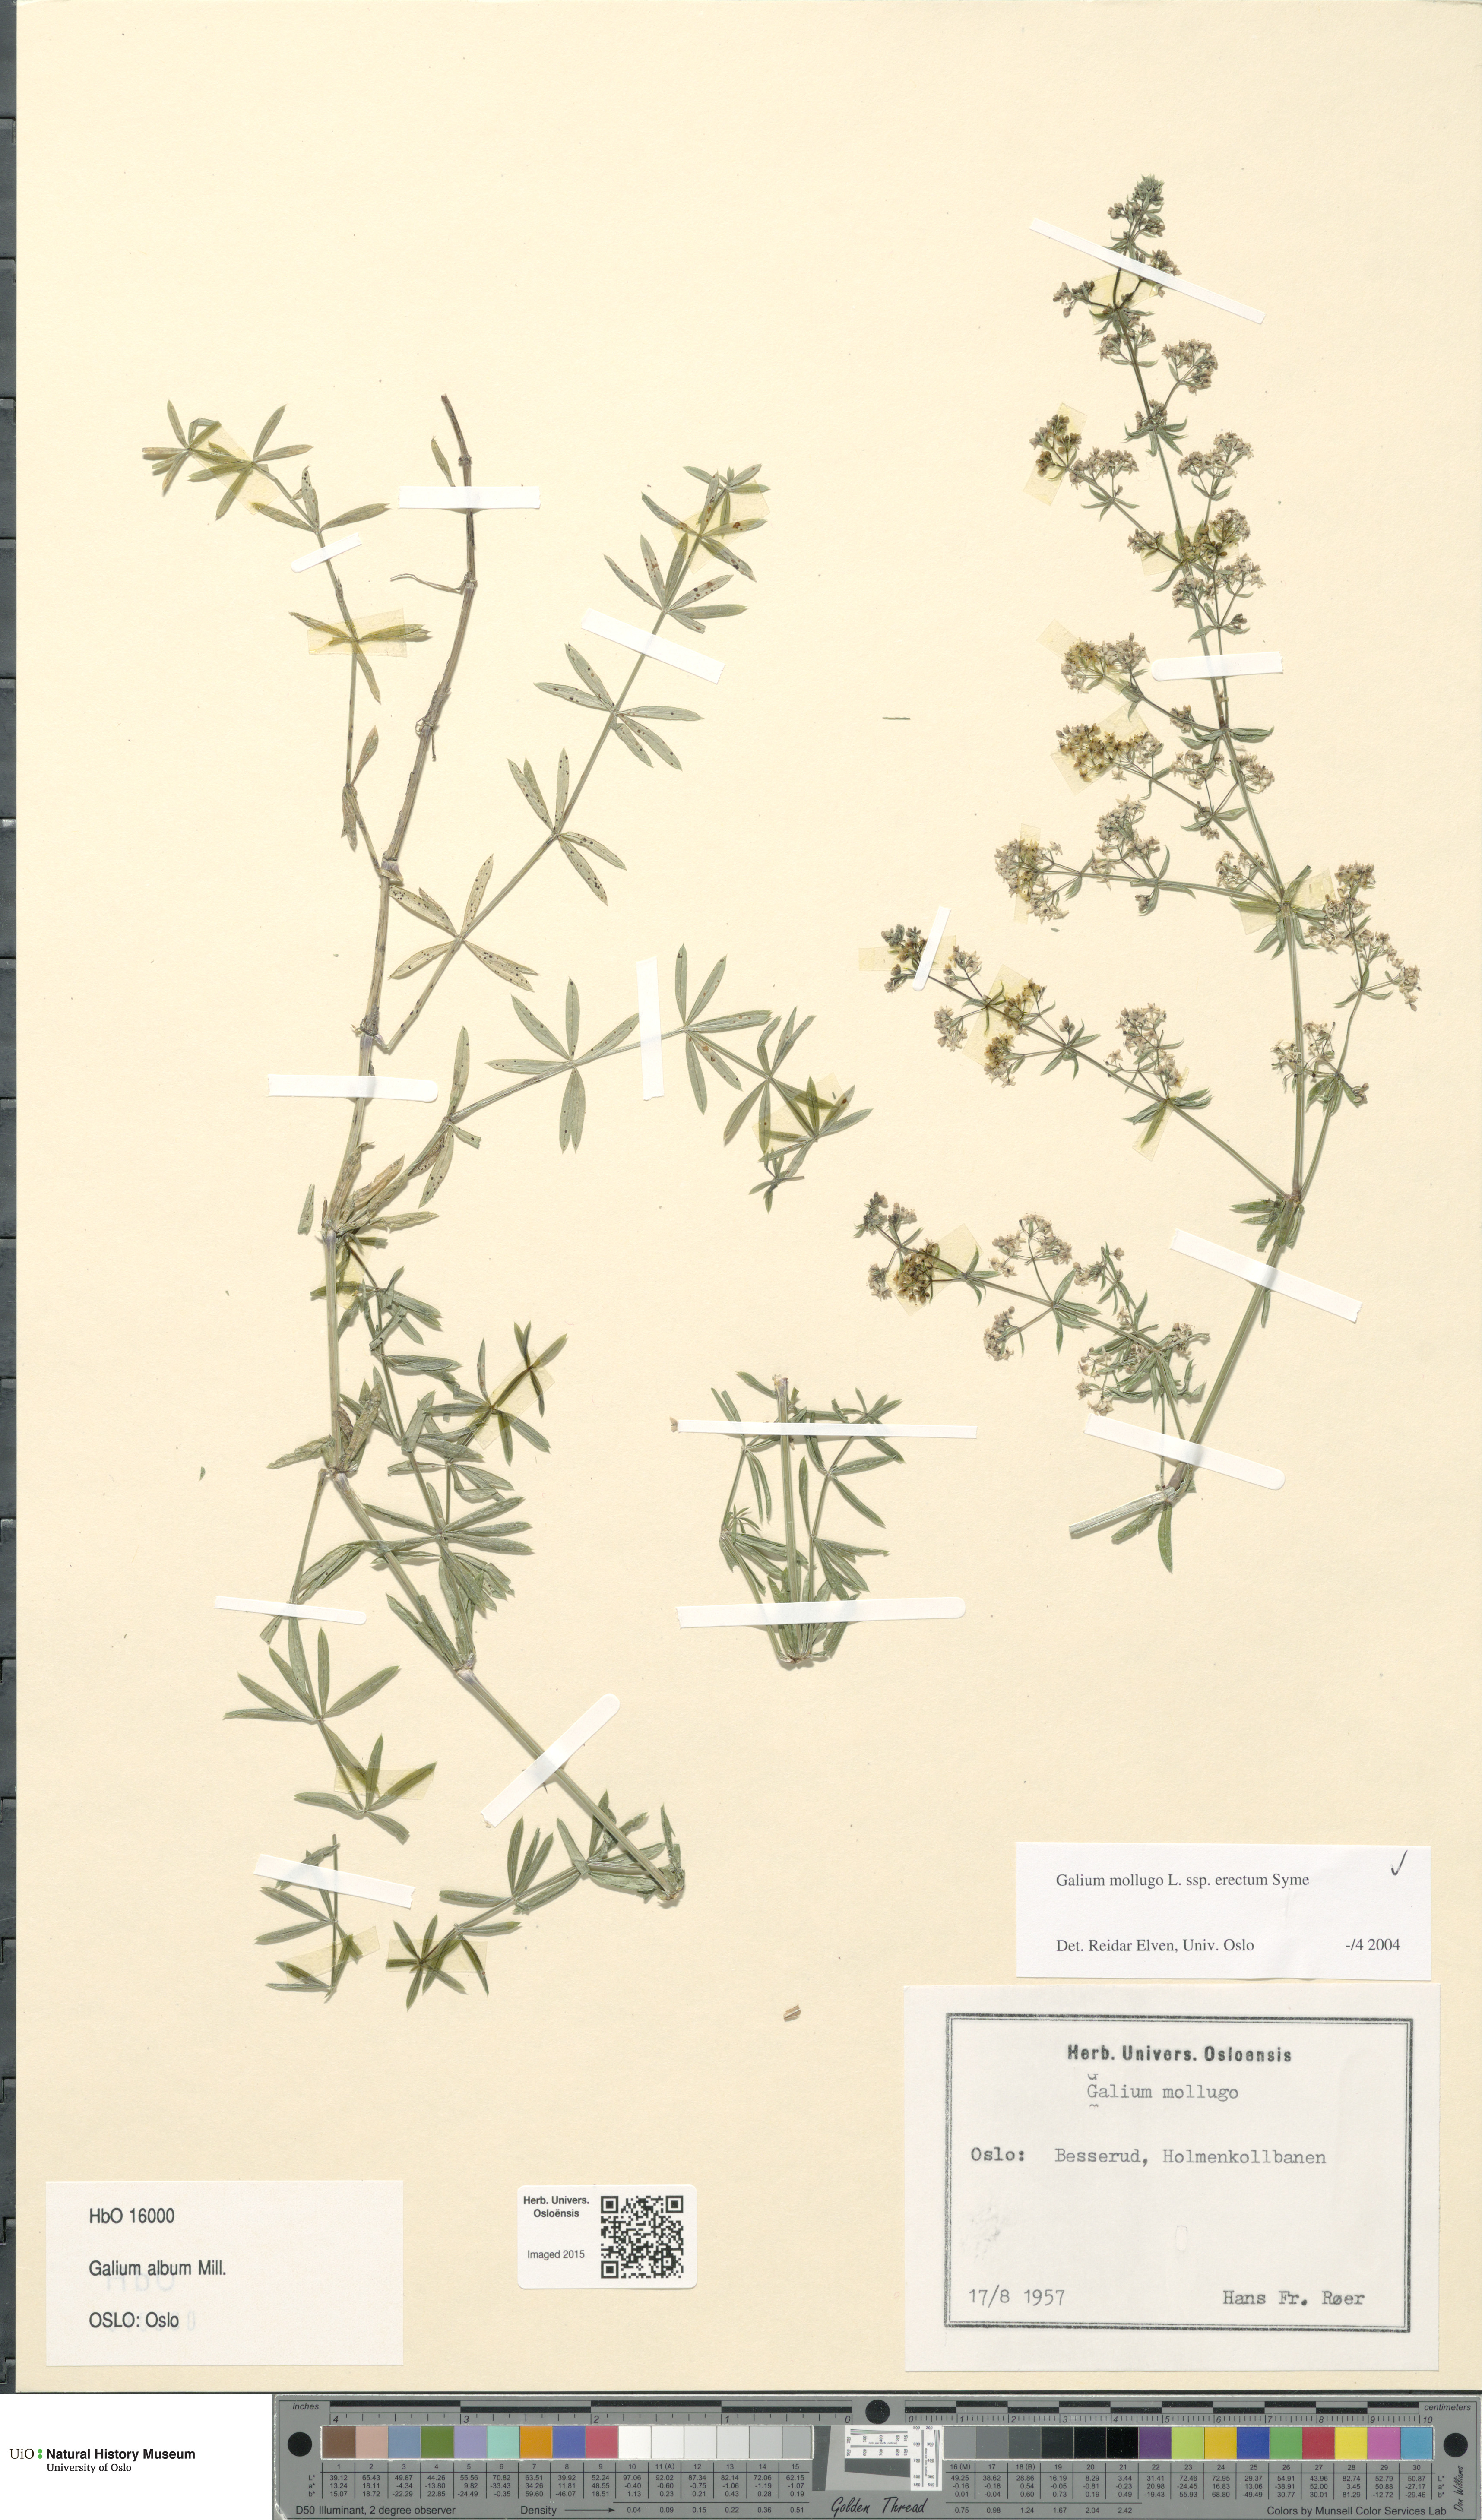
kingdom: Plantae
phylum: Tracheophyta
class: Magnoliopsida
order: Gentianales
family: Rubiaceae
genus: Galium
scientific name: Galium album
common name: White bedstraw
